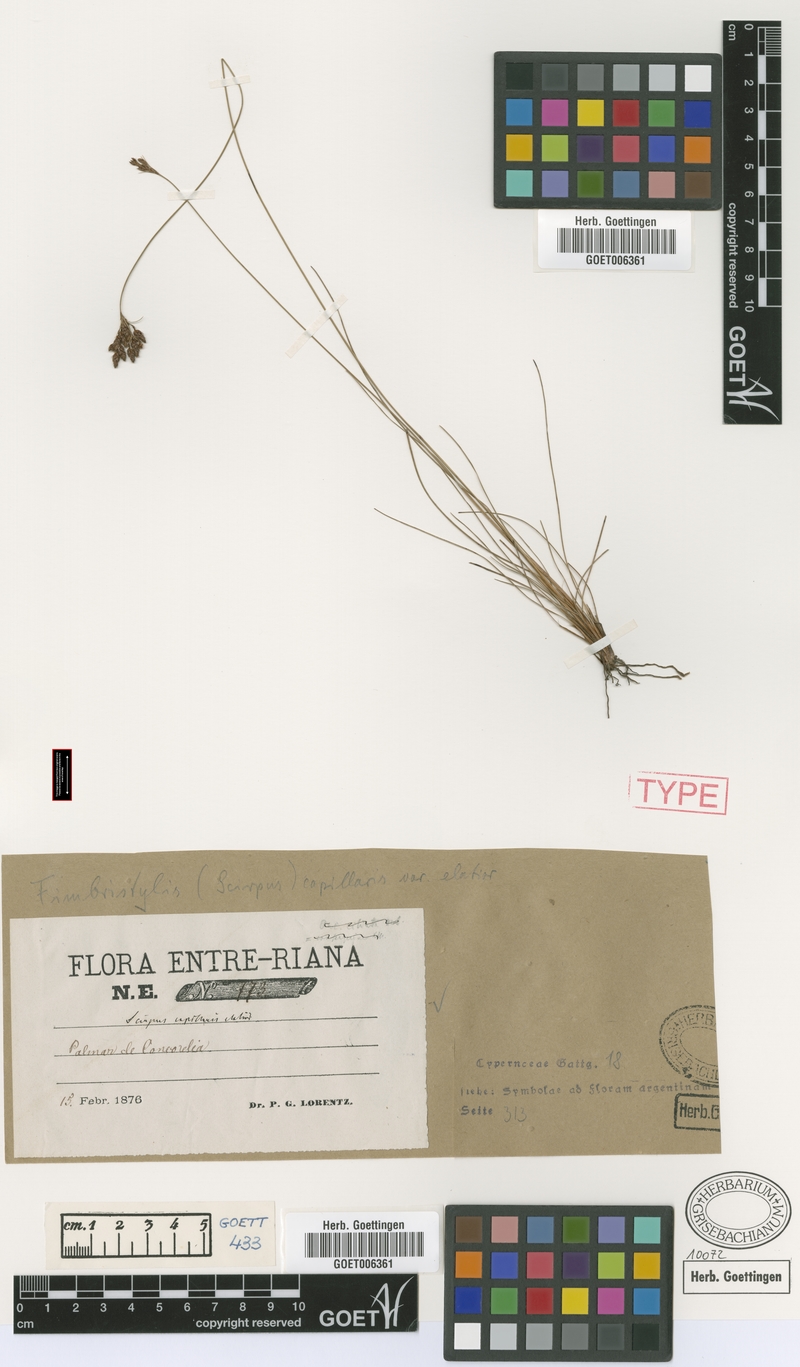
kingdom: Plantae
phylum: Tracheophyta
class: Liliopsida
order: Poales
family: Cyperaceae
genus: Bulbostylis
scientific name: Bulbostylis communis
